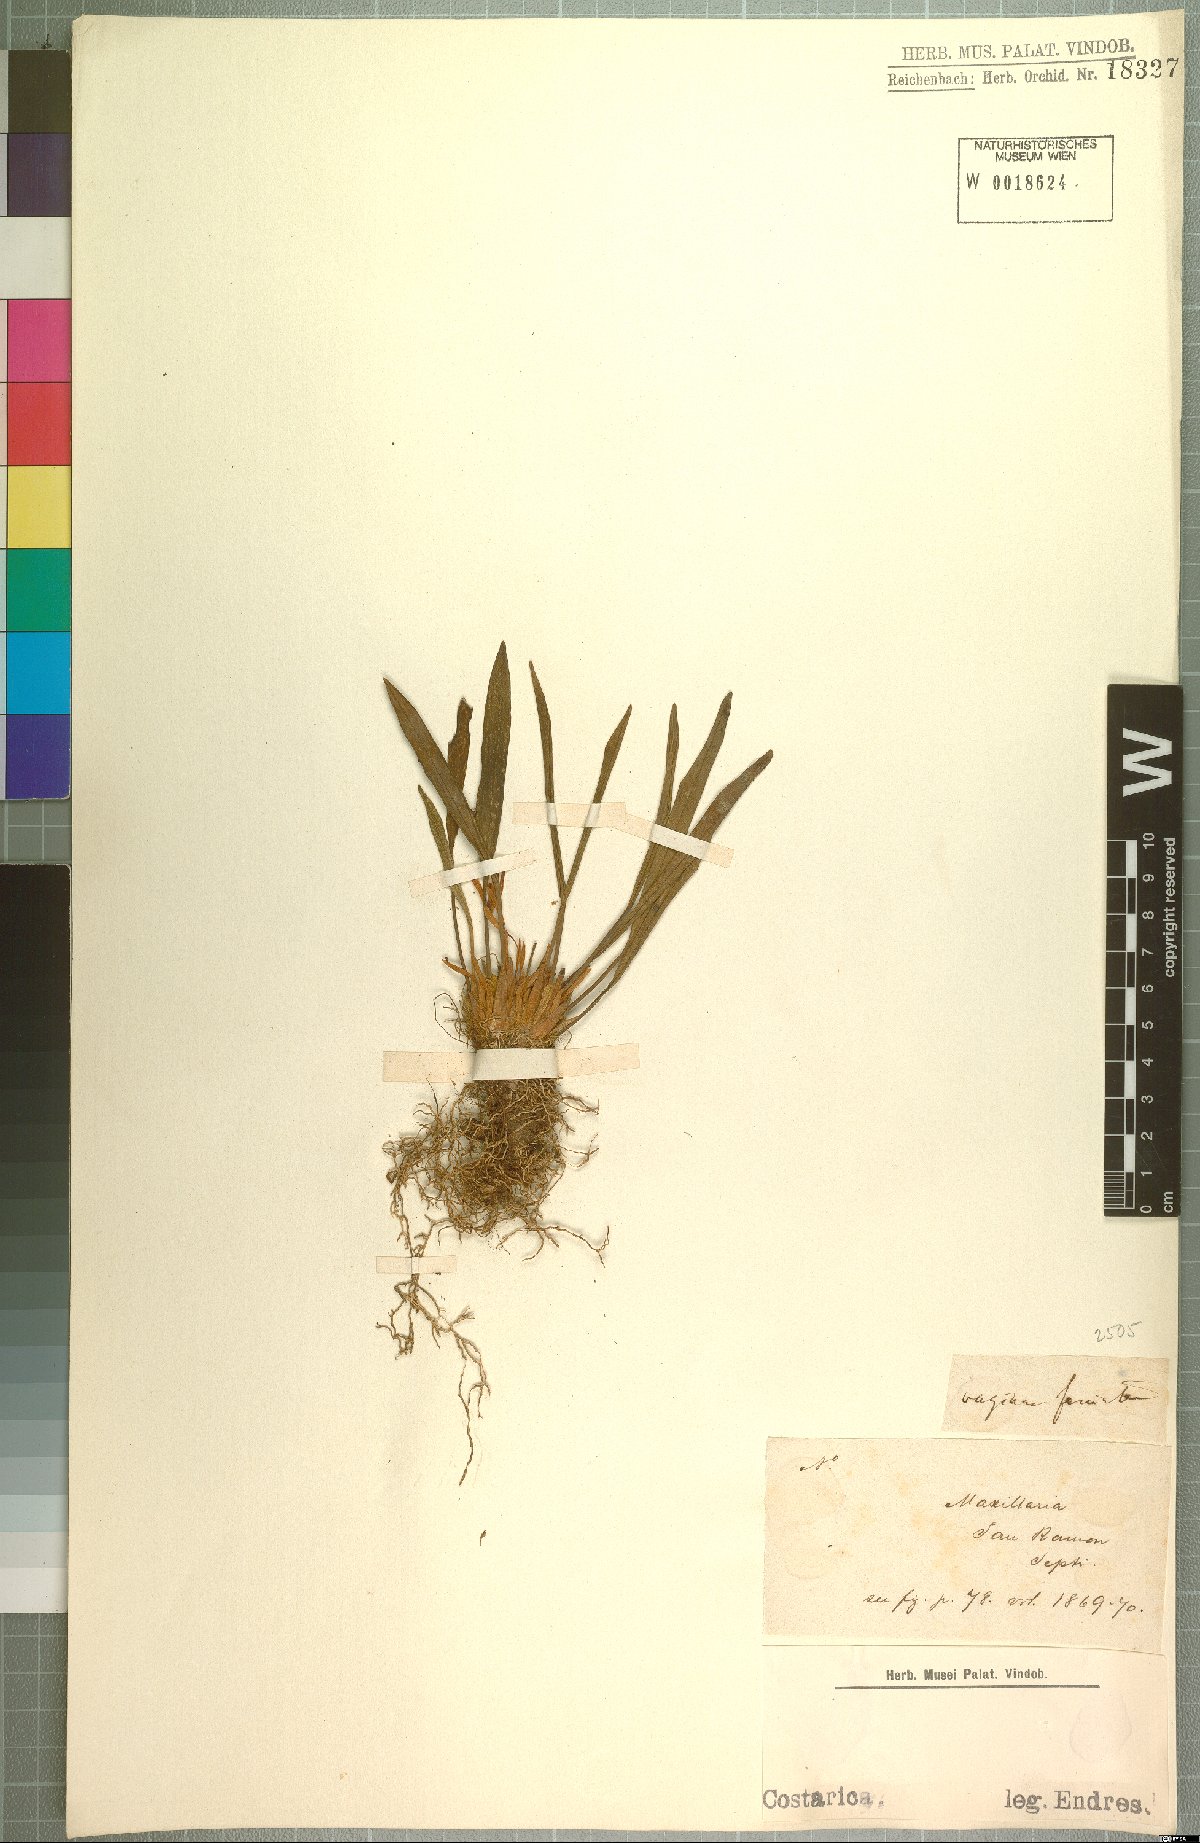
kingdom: Plantae
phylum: Tracheophyta
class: Liliopsida
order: Asparagales
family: Orchidaceae
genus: Maxillaria
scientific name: Maxillaria
